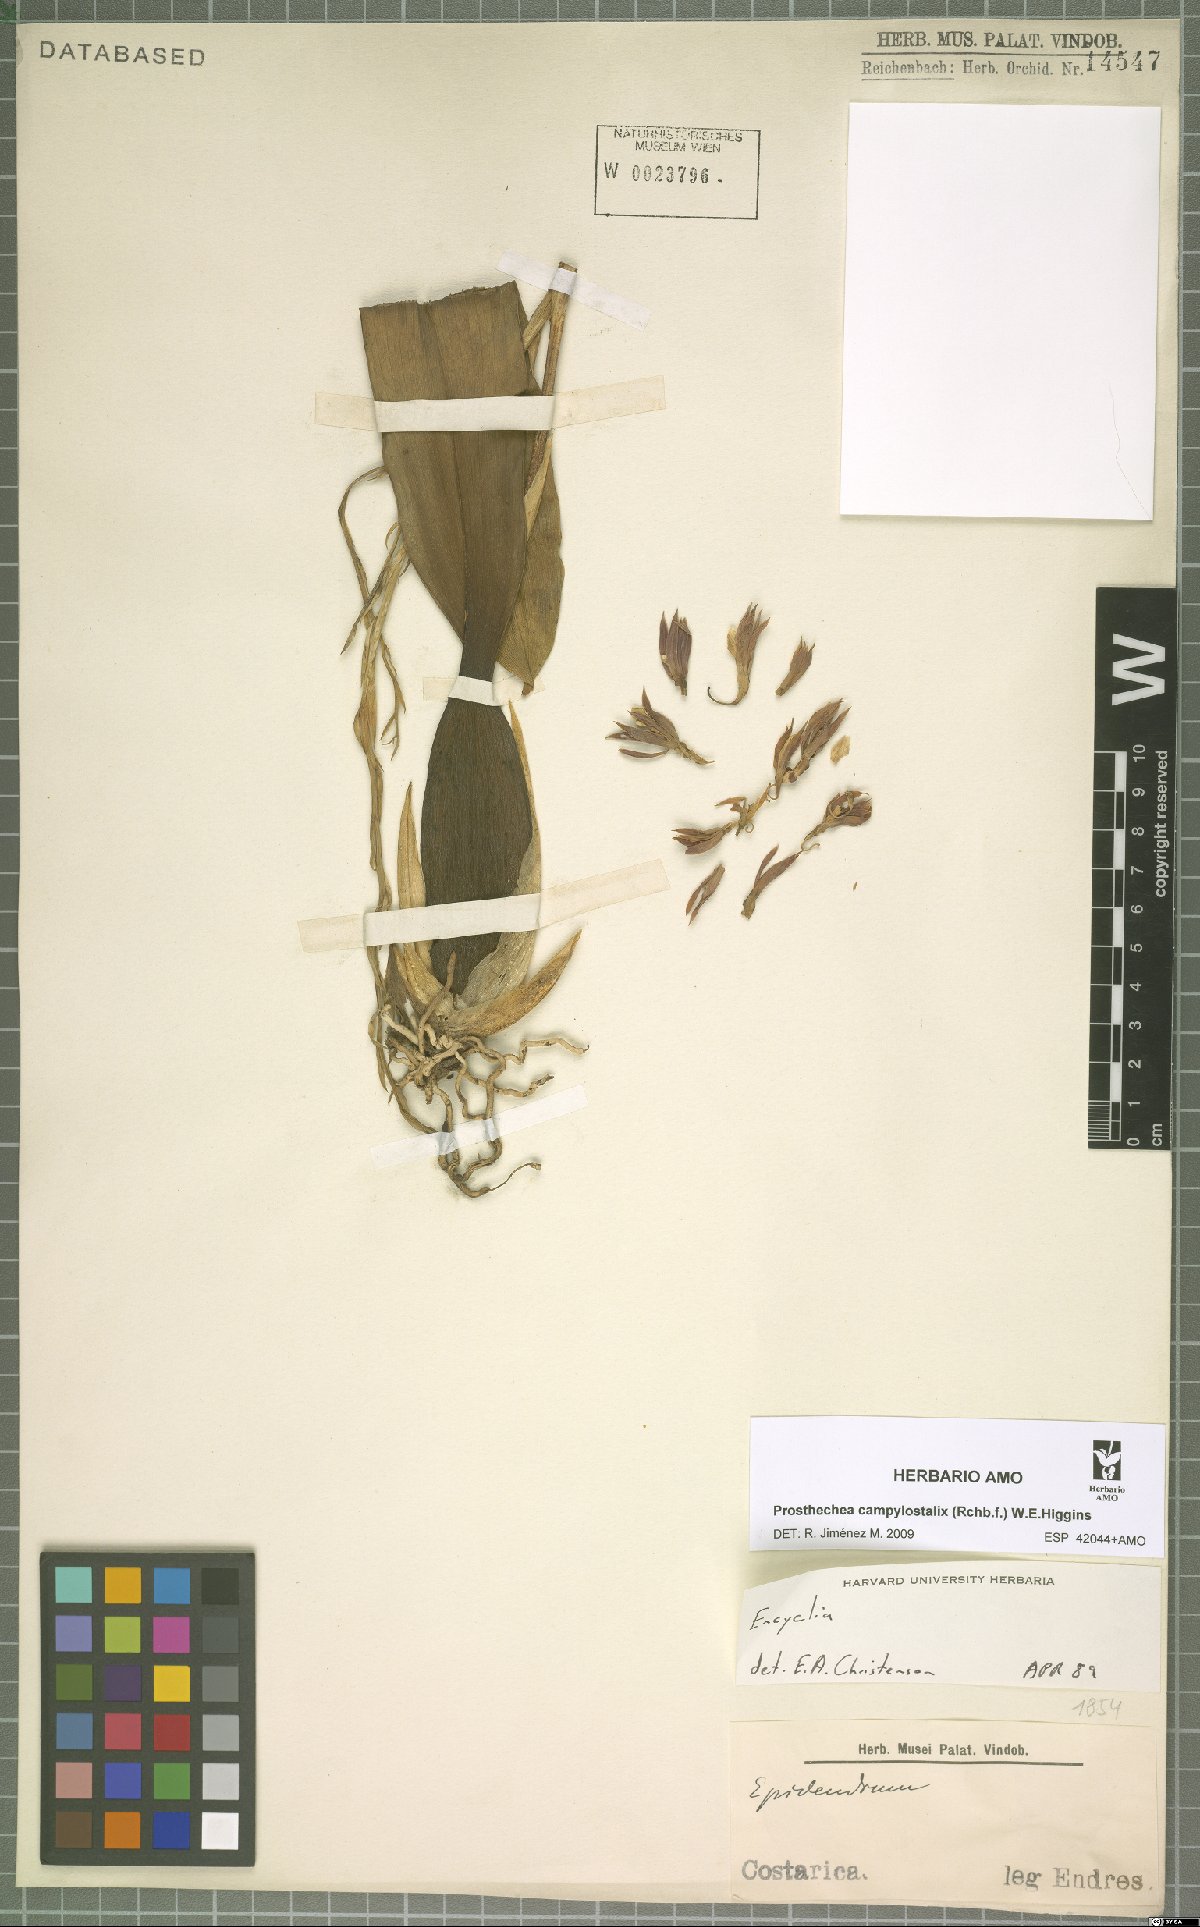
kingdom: Plantae
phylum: Tracheophyta
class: Liliopsida
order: Asparagales
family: Orchidaceae
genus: Prosthechea
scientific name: Prosthechea campylostalix
